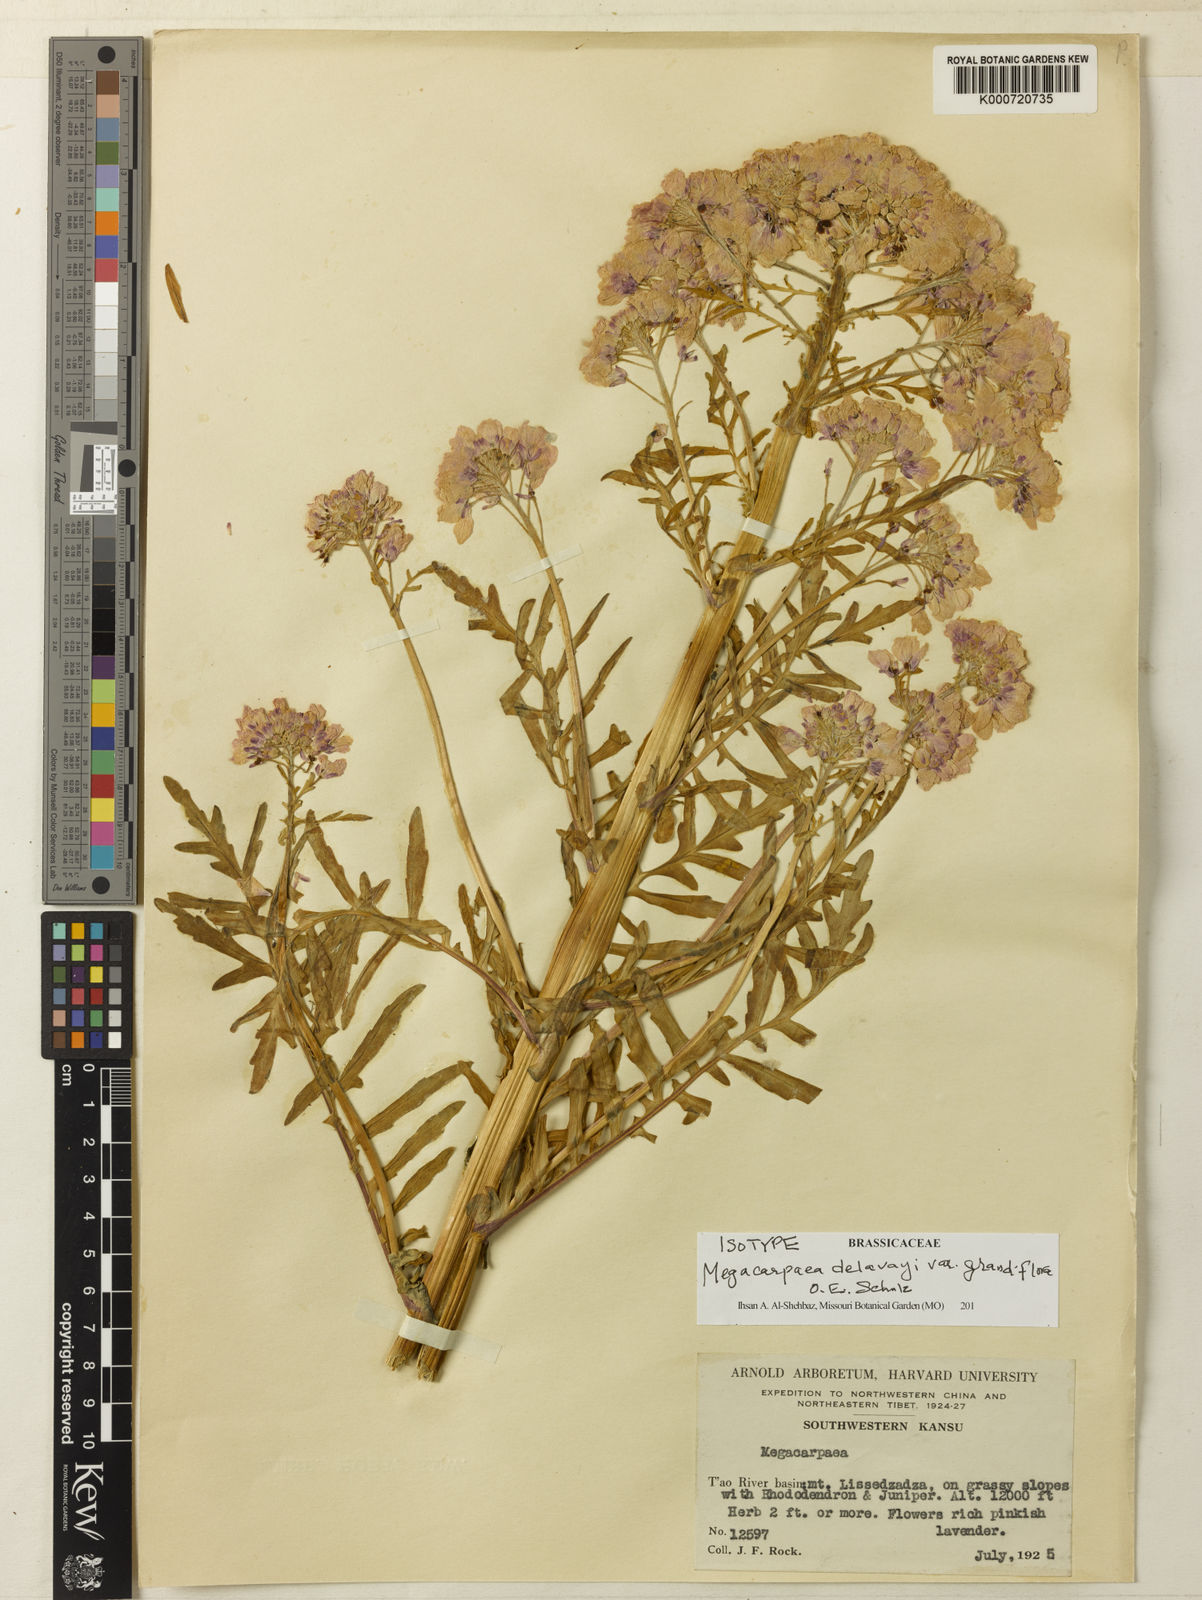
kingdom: Plantae
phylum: Tracheophyta
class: Magnoliopsida
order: Brassicales
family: Brassicaceae
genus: Megacarpaea
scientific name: Megacarpaea delavayi
